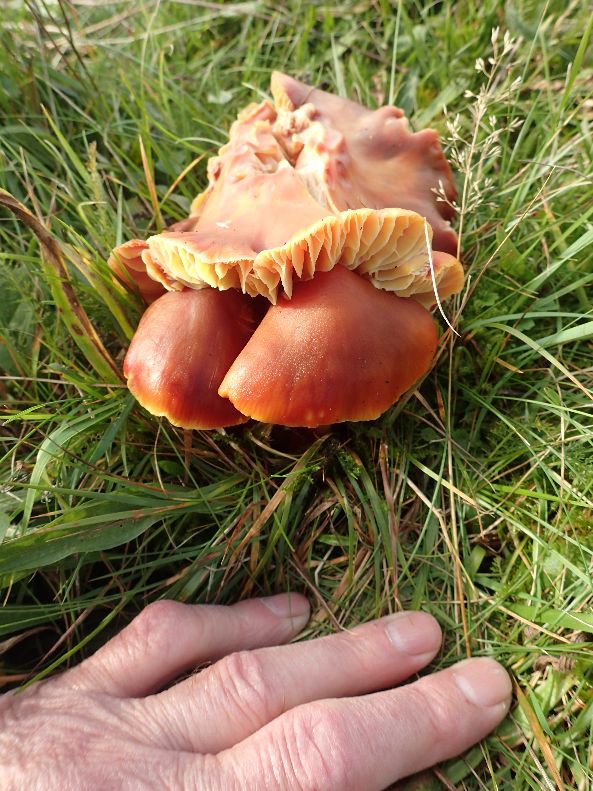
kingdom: Fungi
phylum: Basidiomycota
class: Agaricomycetes
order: Agaricales
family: Hygrophoraceae
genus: Hygrocybe
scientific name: Hygrocybe punicea
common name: skarlagen-vokshat
